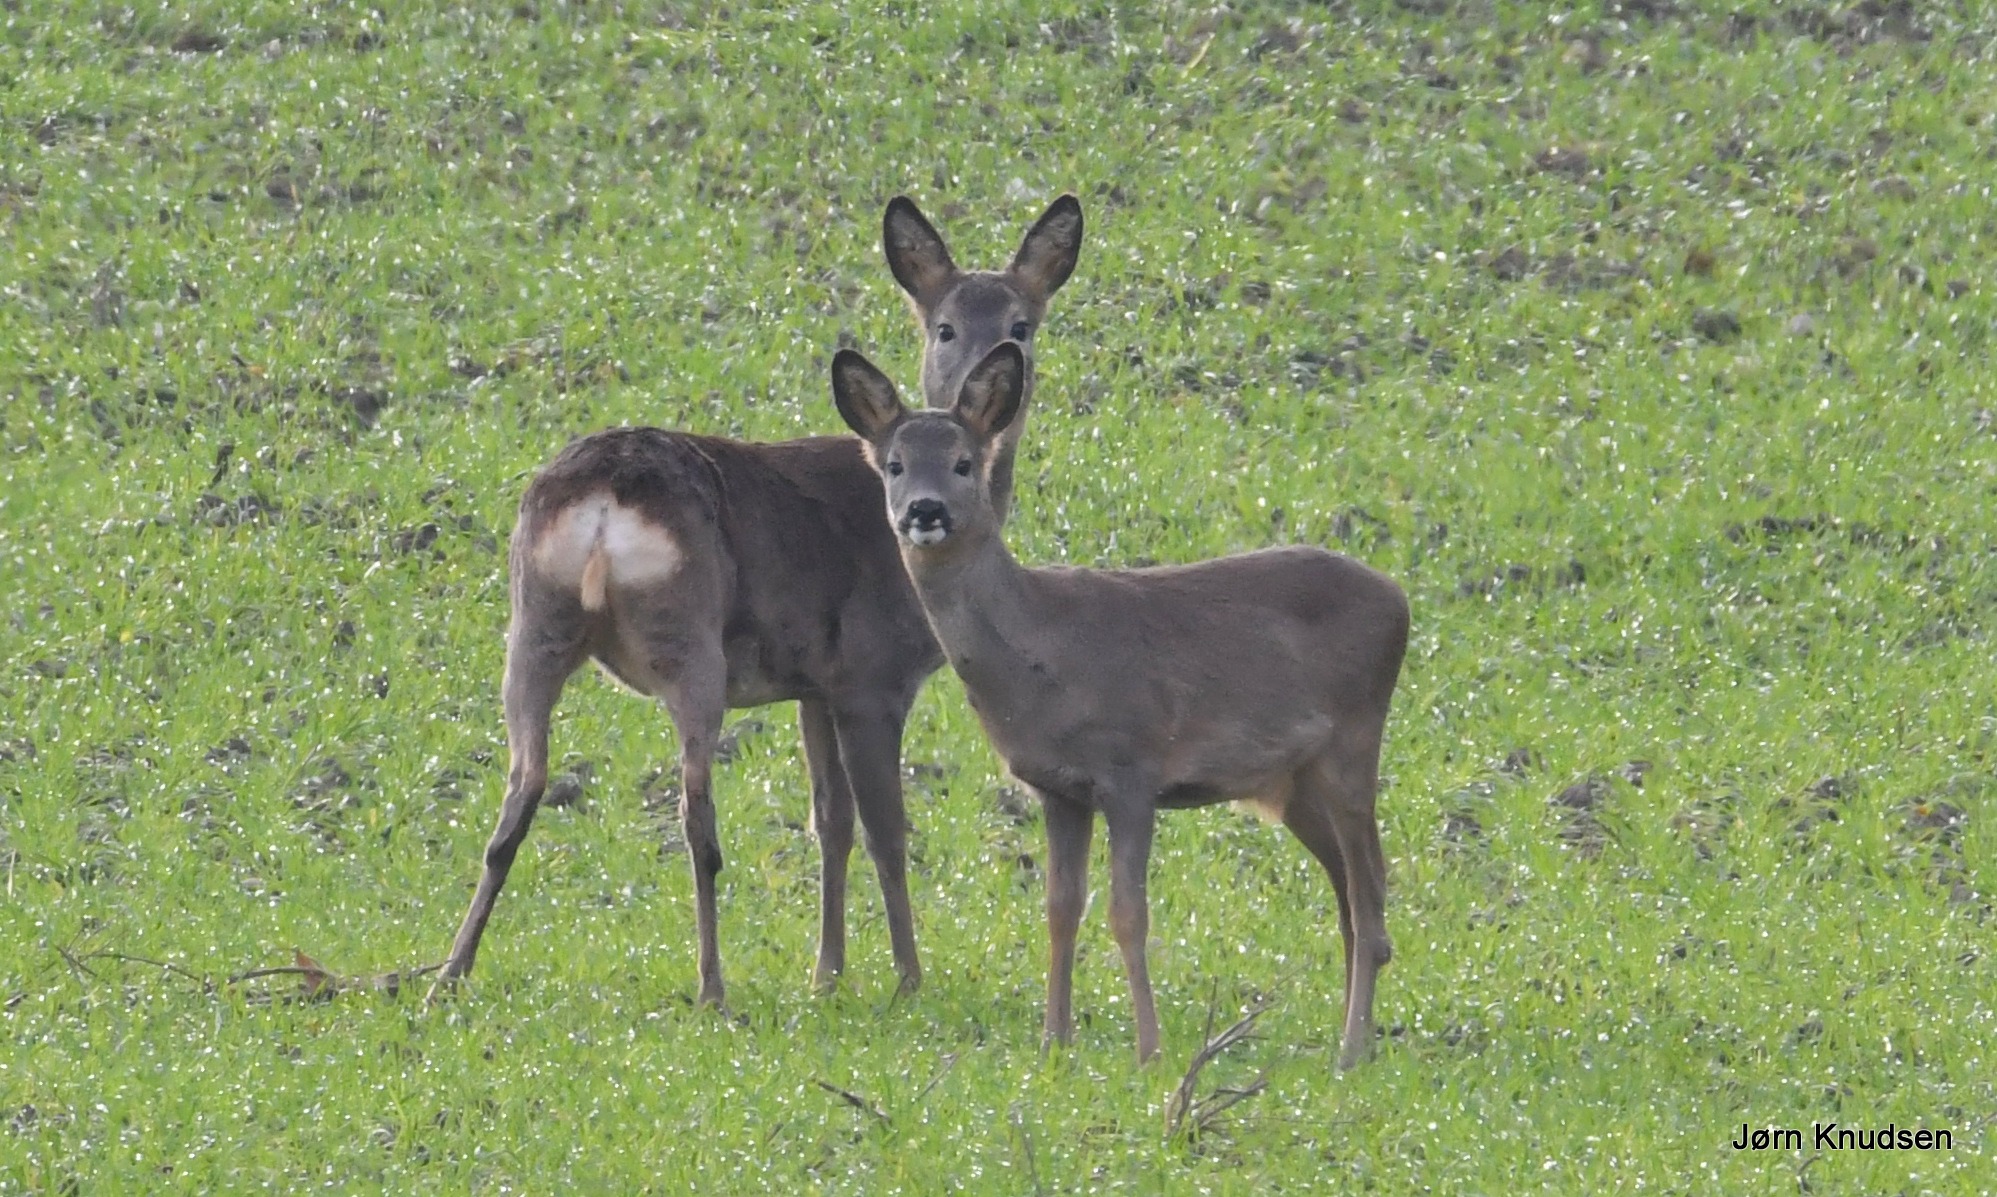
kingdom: Animalia
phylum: Chordata
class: Mammalia
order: Artiodactyla
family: Cervidae
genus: Capreolus
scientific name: Capreolus capreolus
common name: Rådyr
